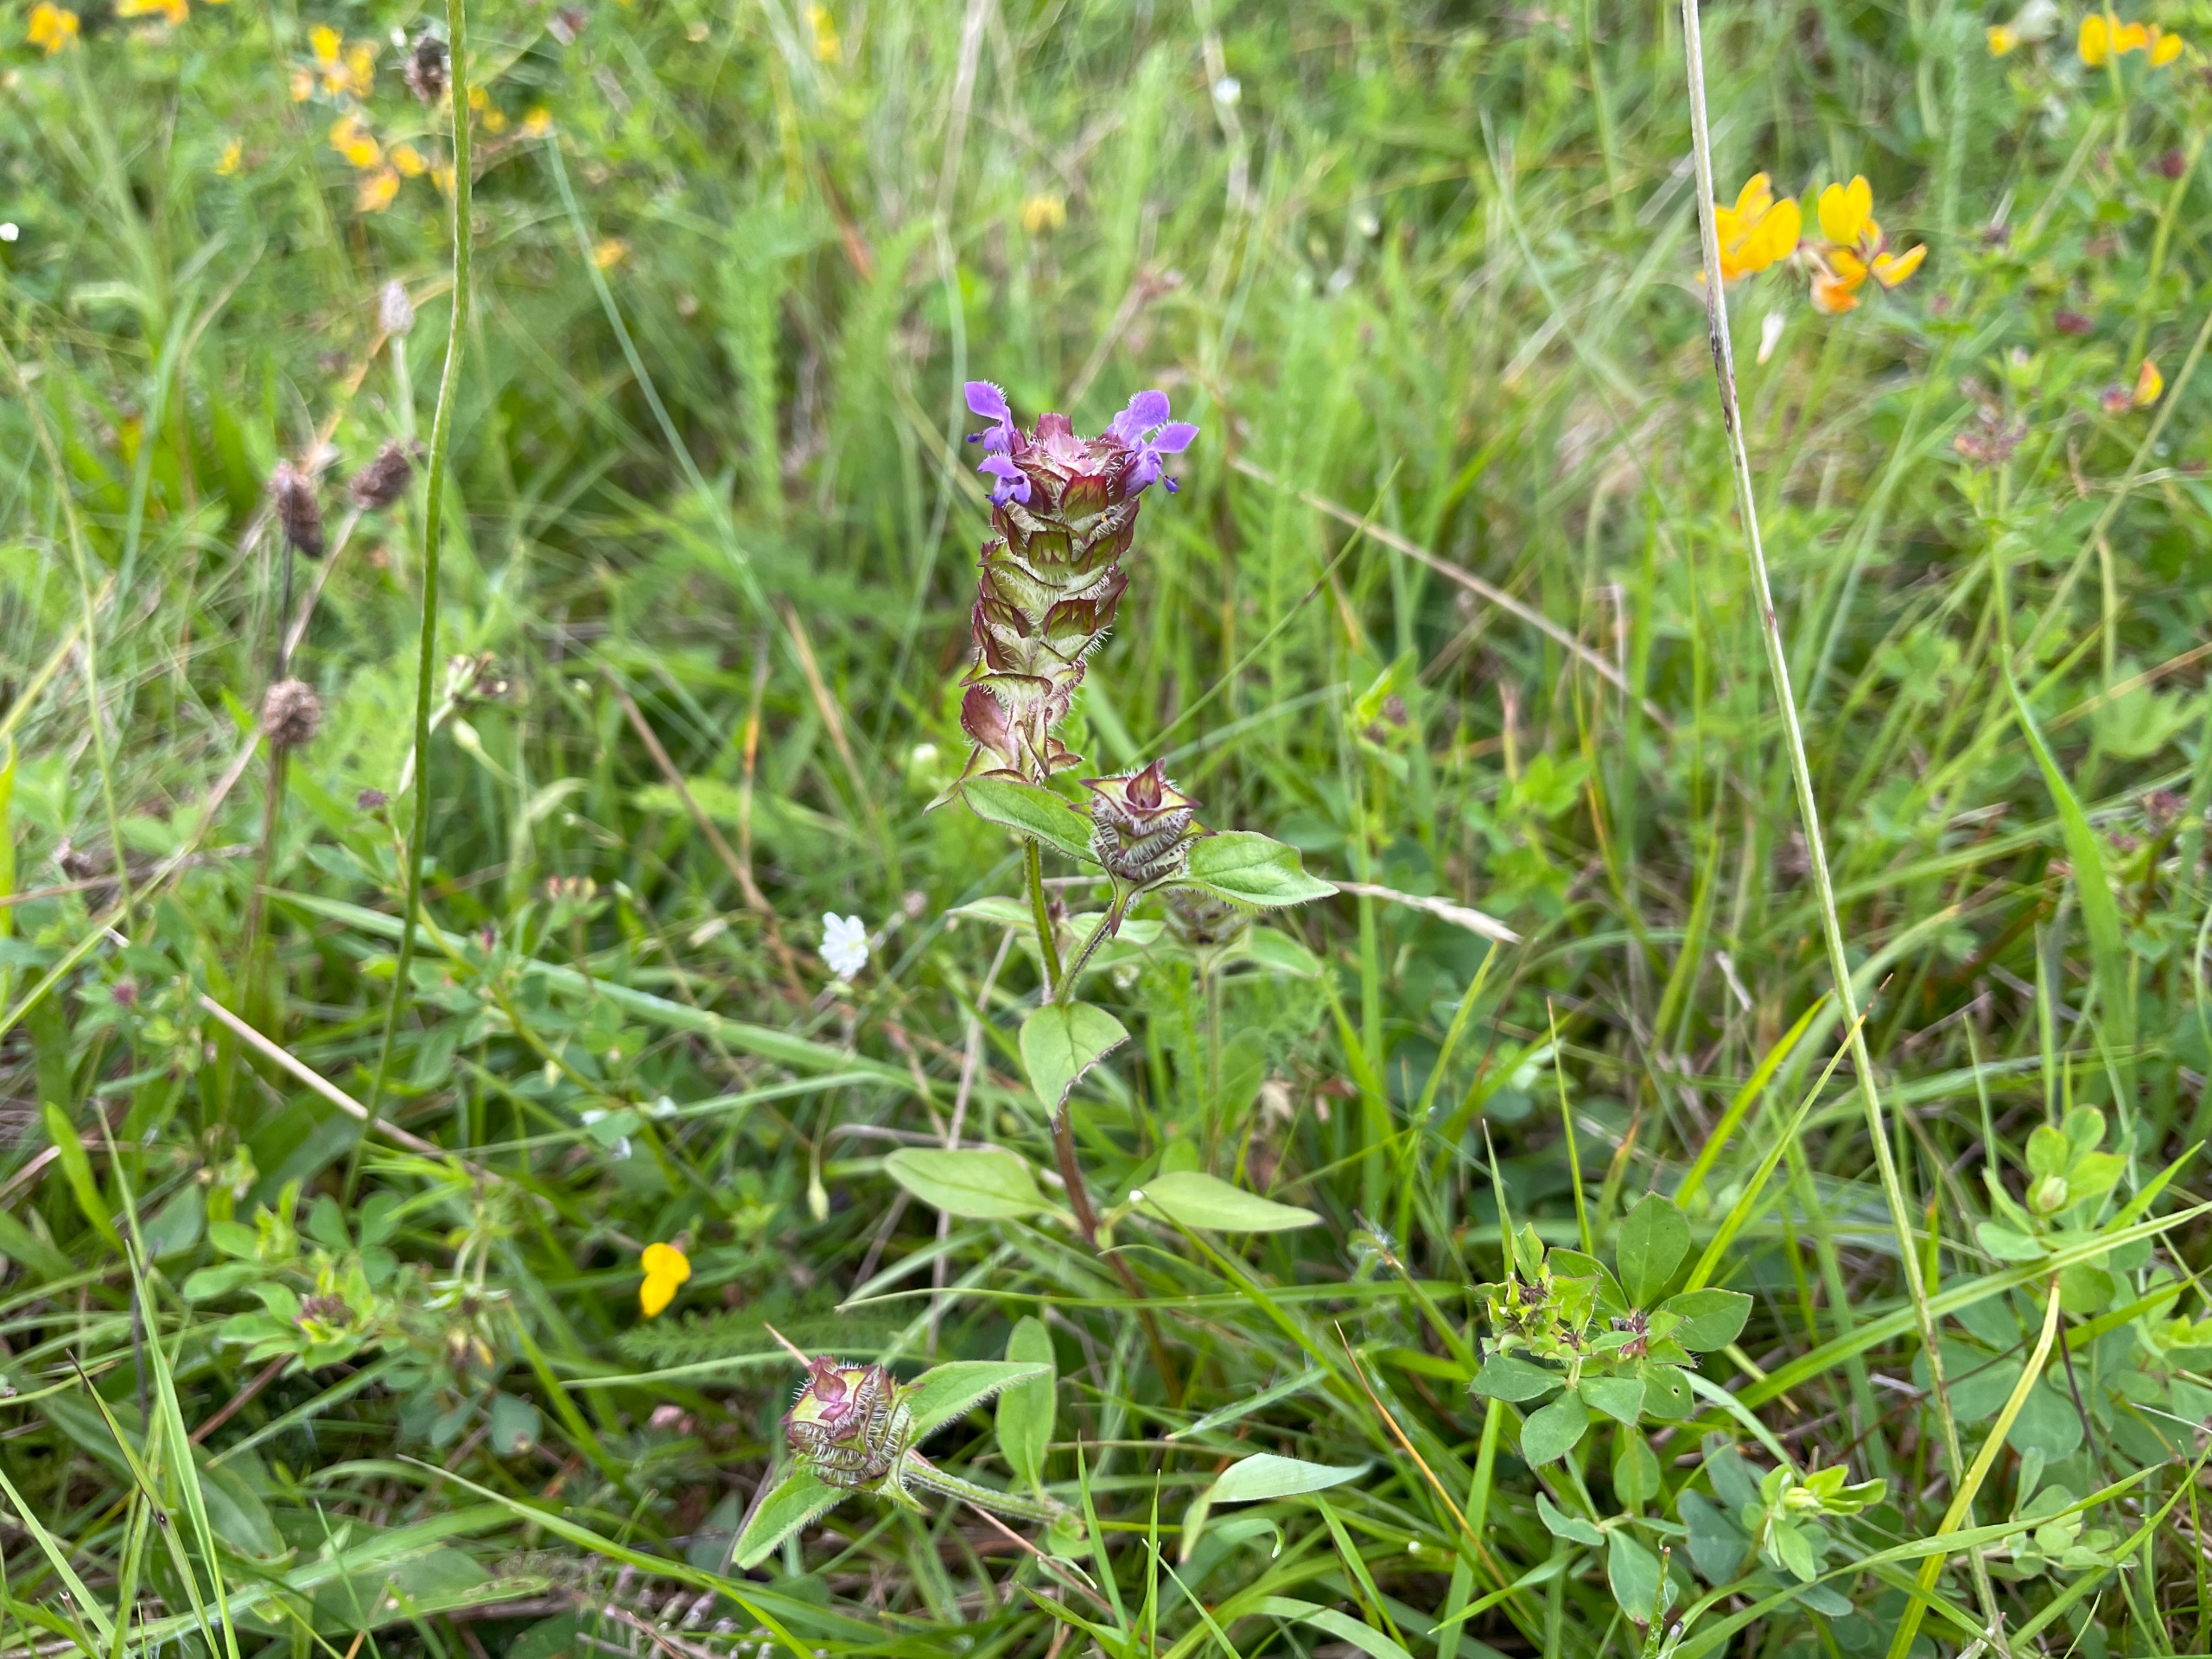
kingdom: Plantae
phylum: Tracheophyta
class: Magnoliopsida
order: Lamiales
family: Lamiaceae
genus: Prunella
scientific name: Prunella vulgaris
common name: Almindelig brunelle
